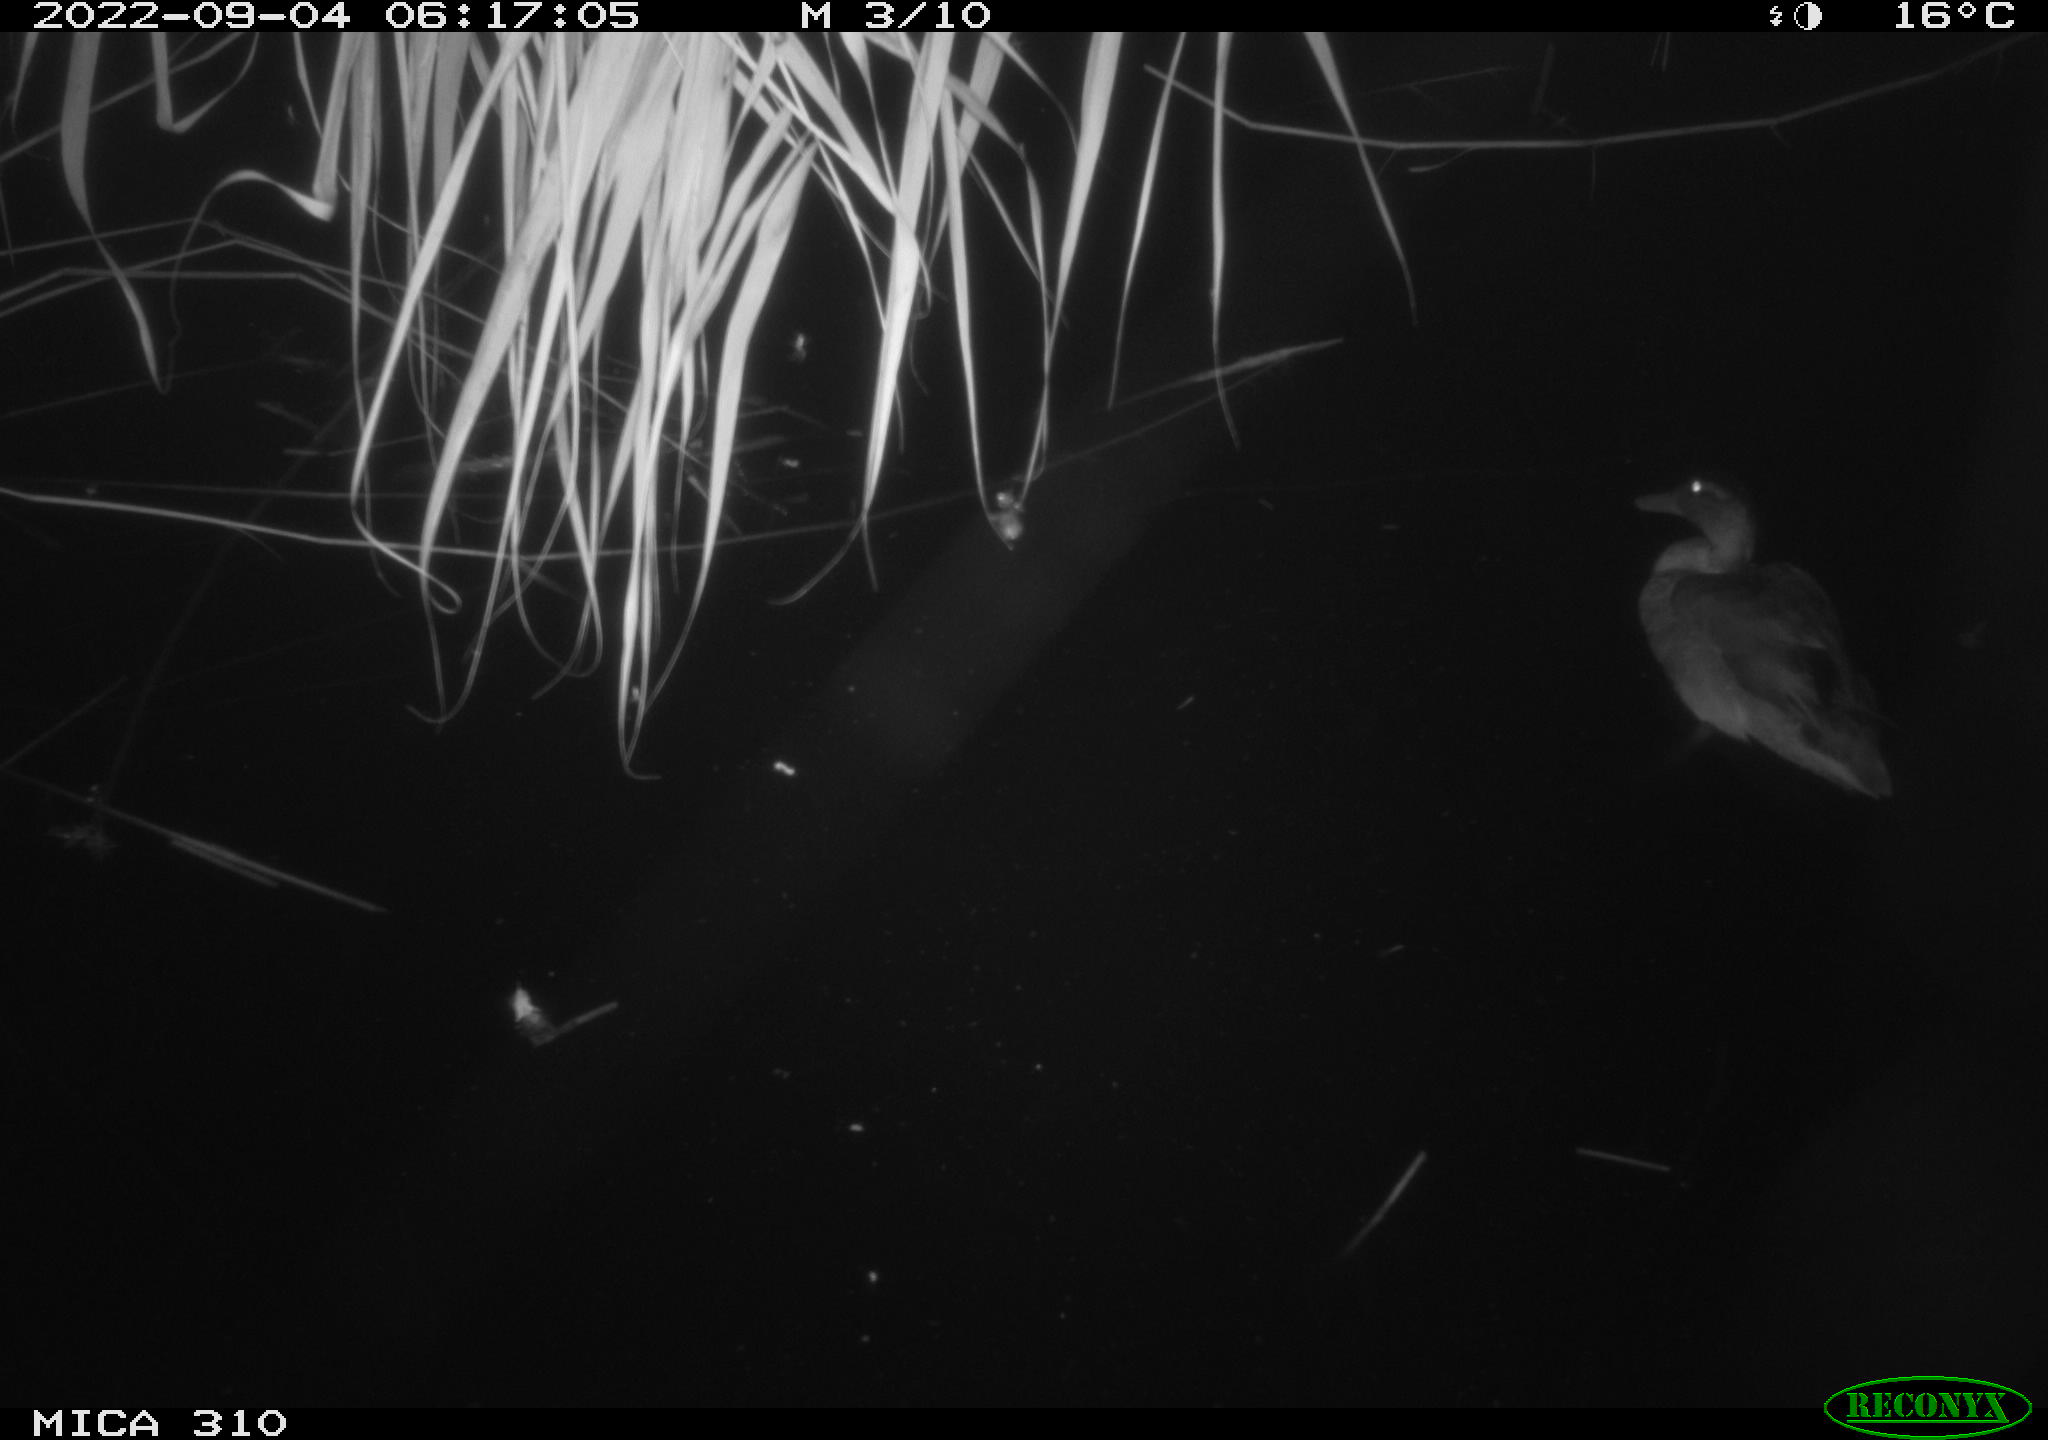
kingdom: Animalia
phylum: Chordata
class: Aves
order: Gruiformes
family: Rallidae
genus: Fulica
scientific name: Fulica atra
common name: Eurasian coot
